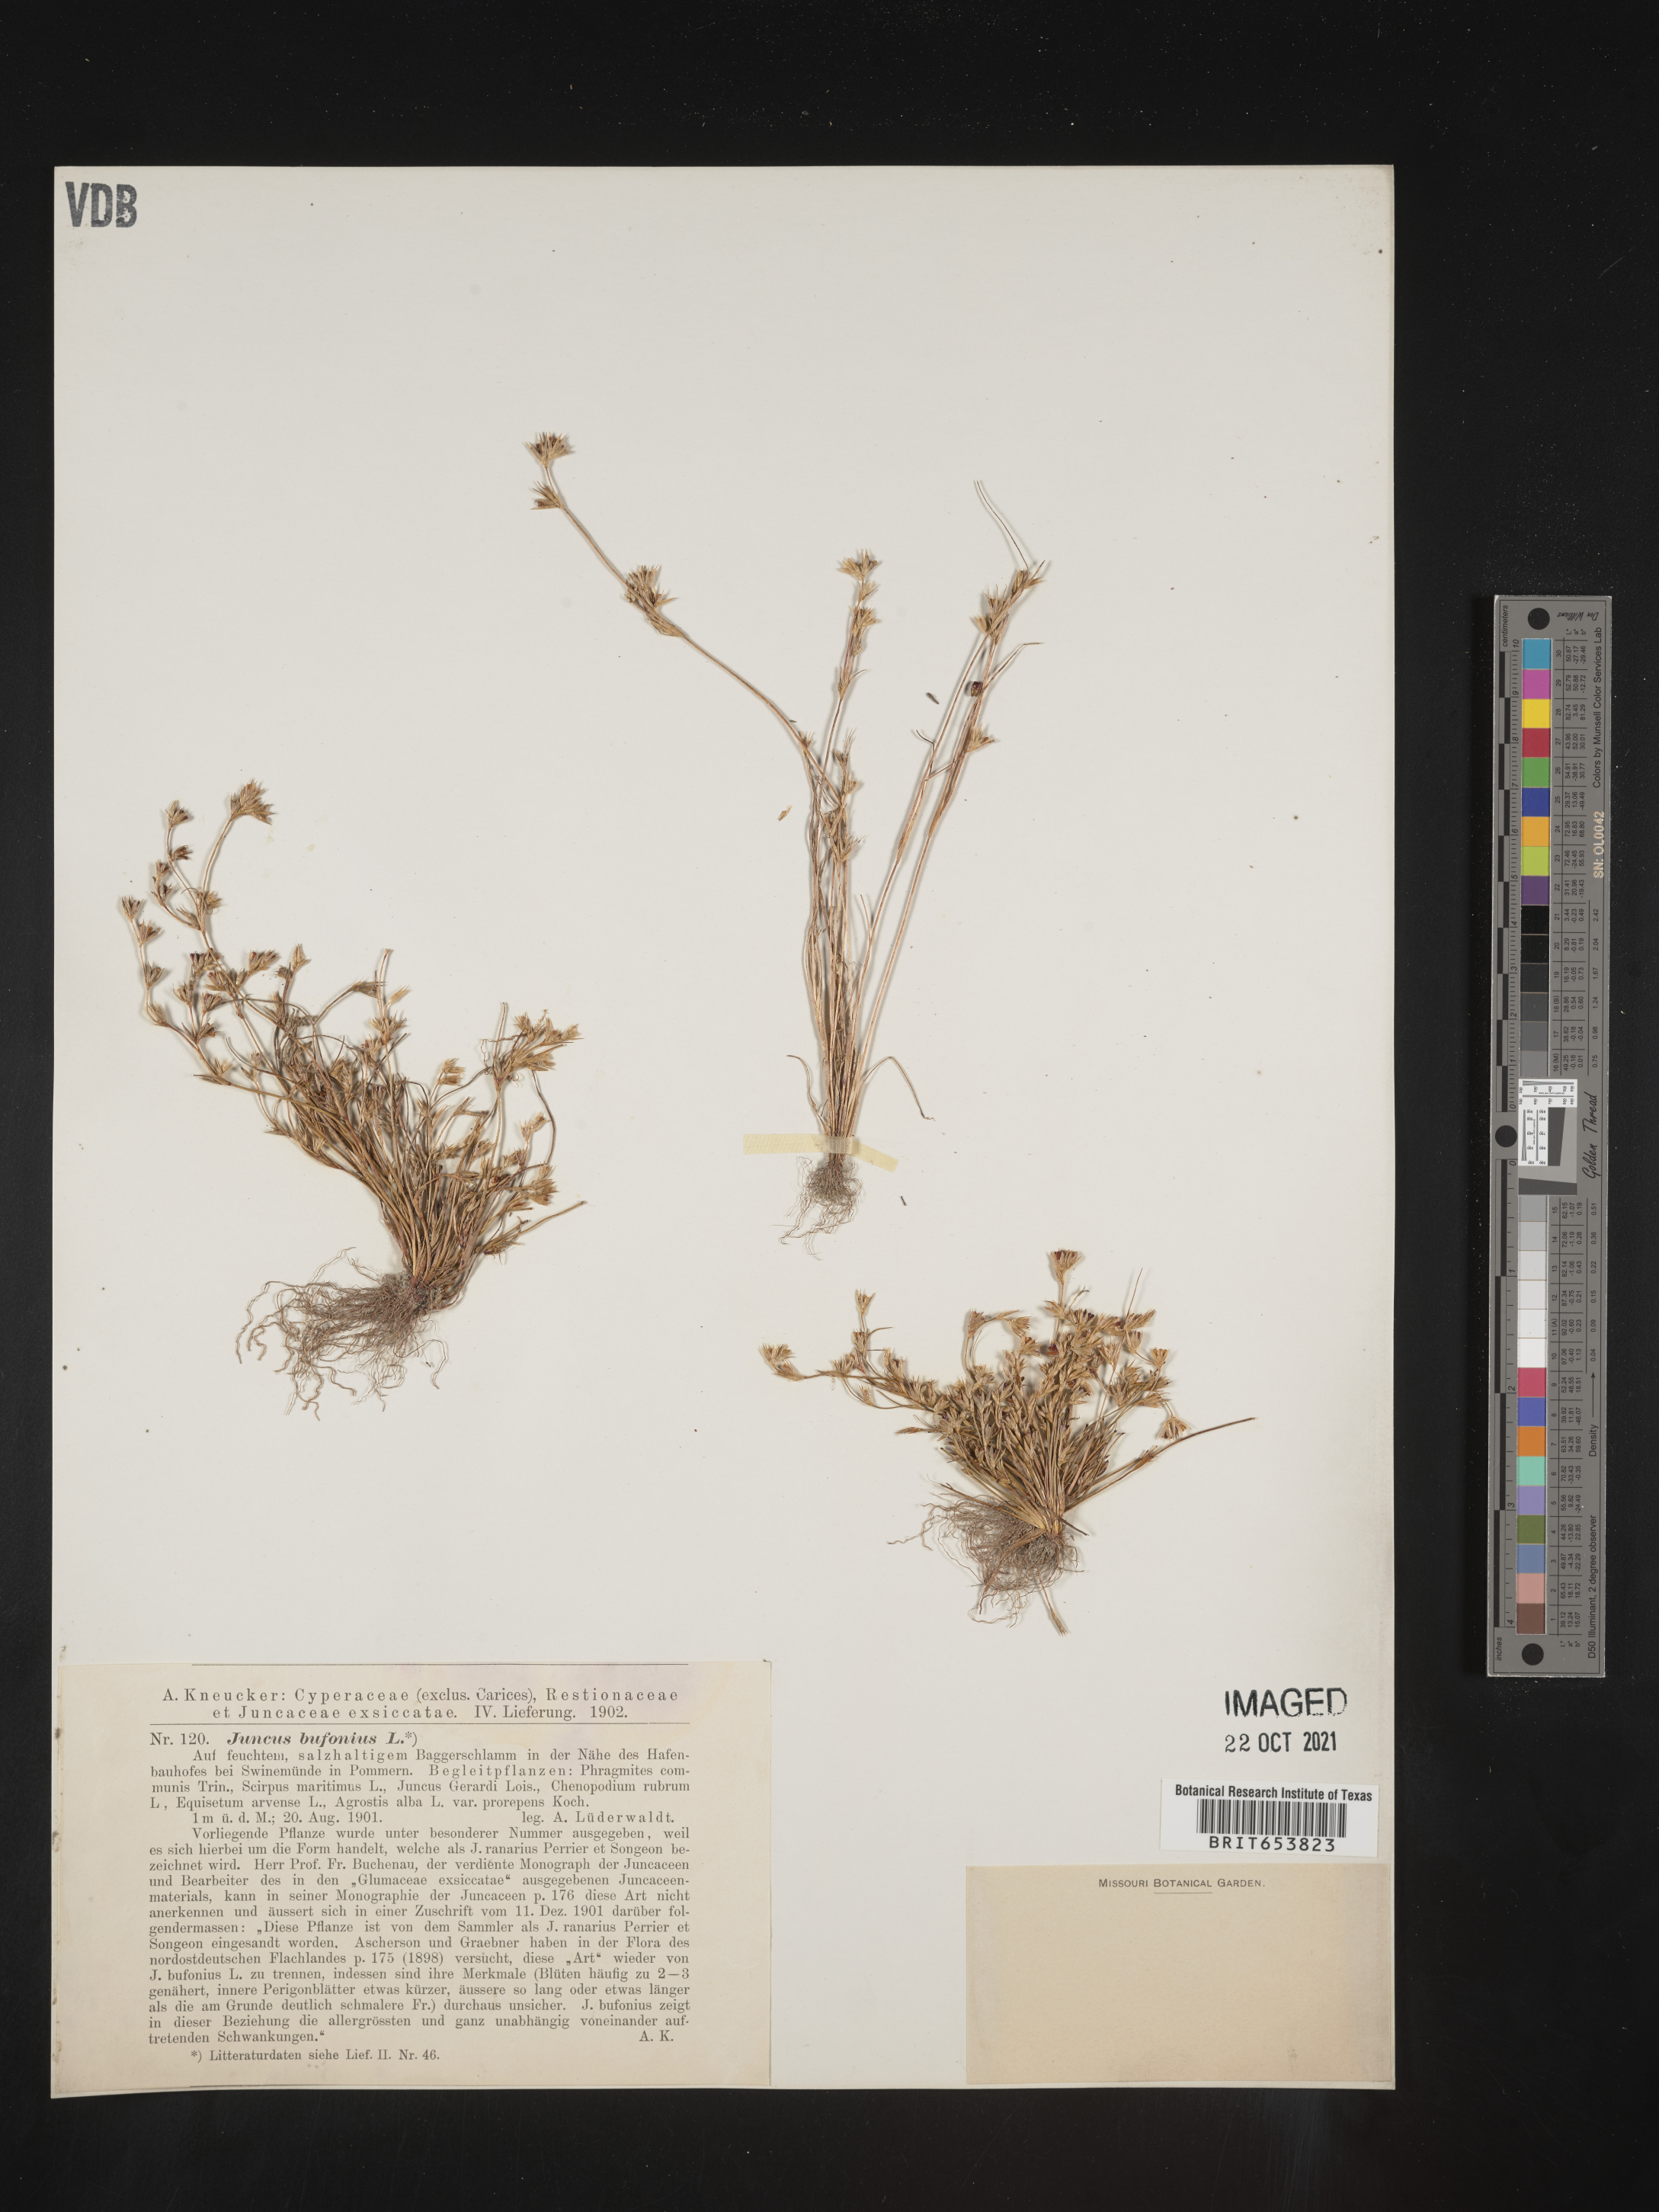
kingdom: Plantae
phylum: Tracheophyta
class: Liliopsida
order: Poales
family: Juncaceae
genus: Juncus
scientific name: Juncus bufonius
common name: Toad rush
